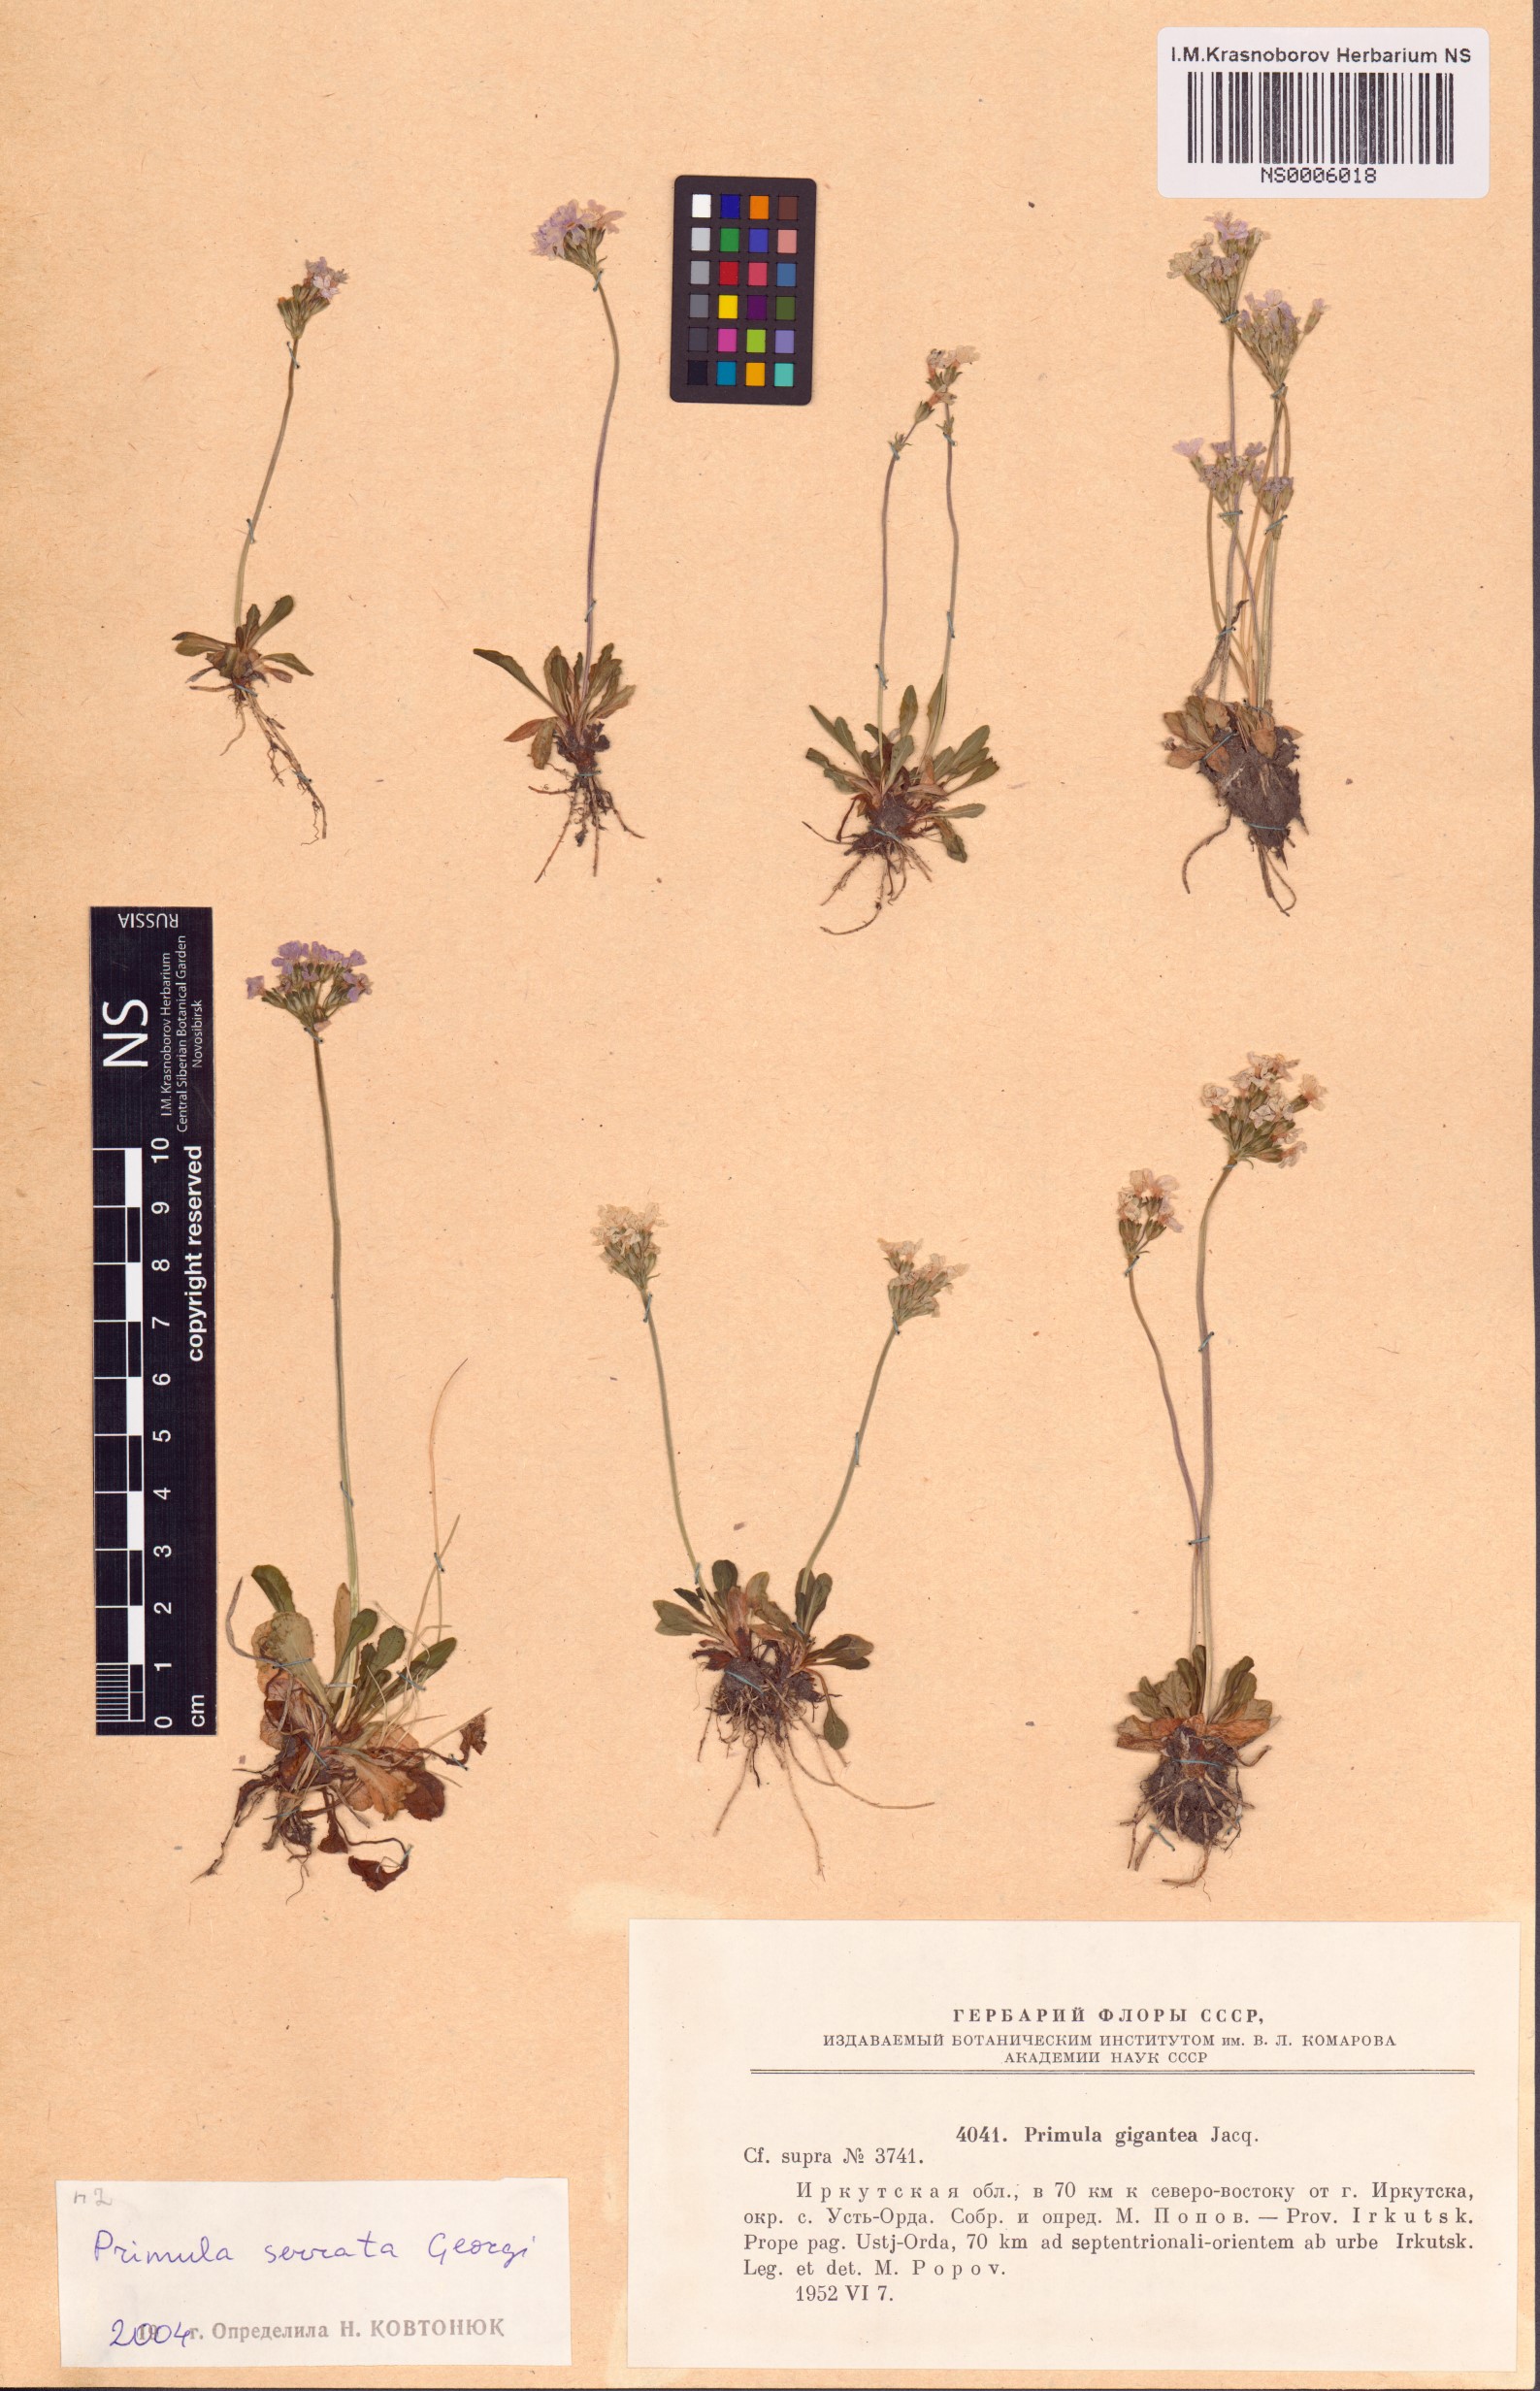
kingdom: Plantae
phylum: Tracheophyta
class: Magnoliopsida
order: Ericales
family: Primulaceae
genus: Primula
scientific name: Primula serrata
